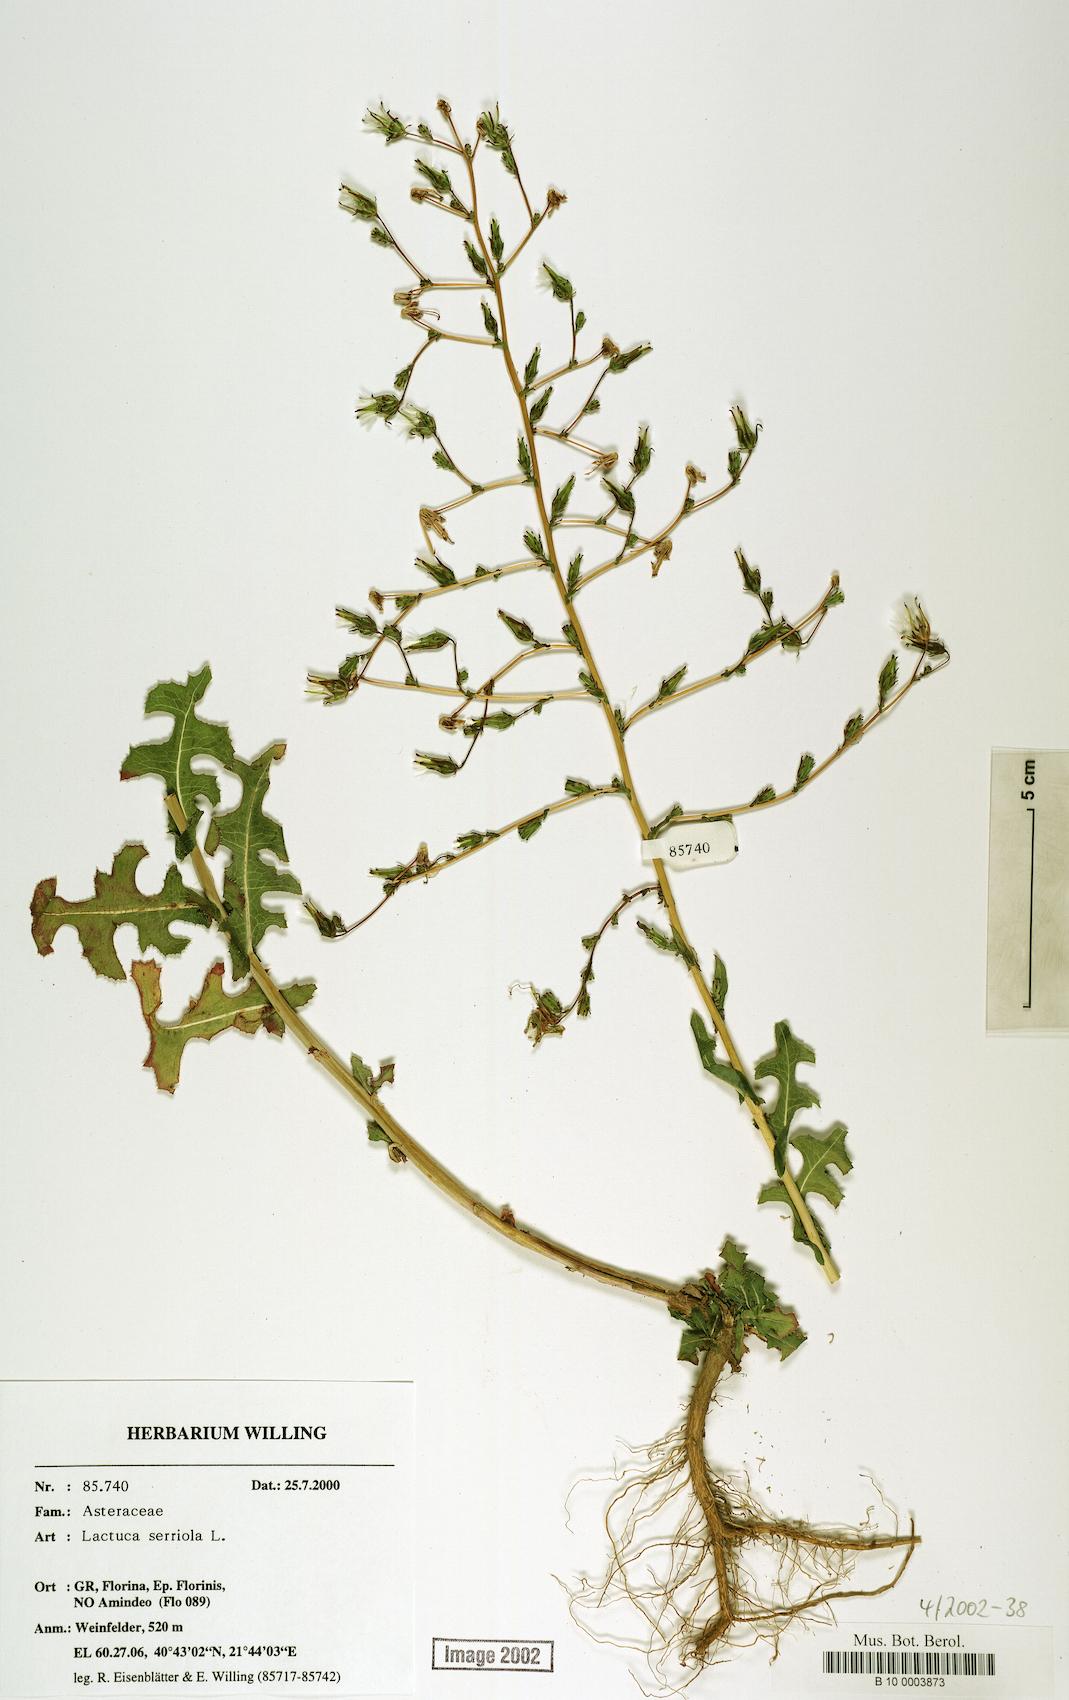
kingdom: Plantae
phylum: Tracheophyta
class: Magnoliopsida
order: Asterales
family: Asteraceae
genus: Lactuca
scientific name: Lactuca serriola
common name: Prickly lettuce
